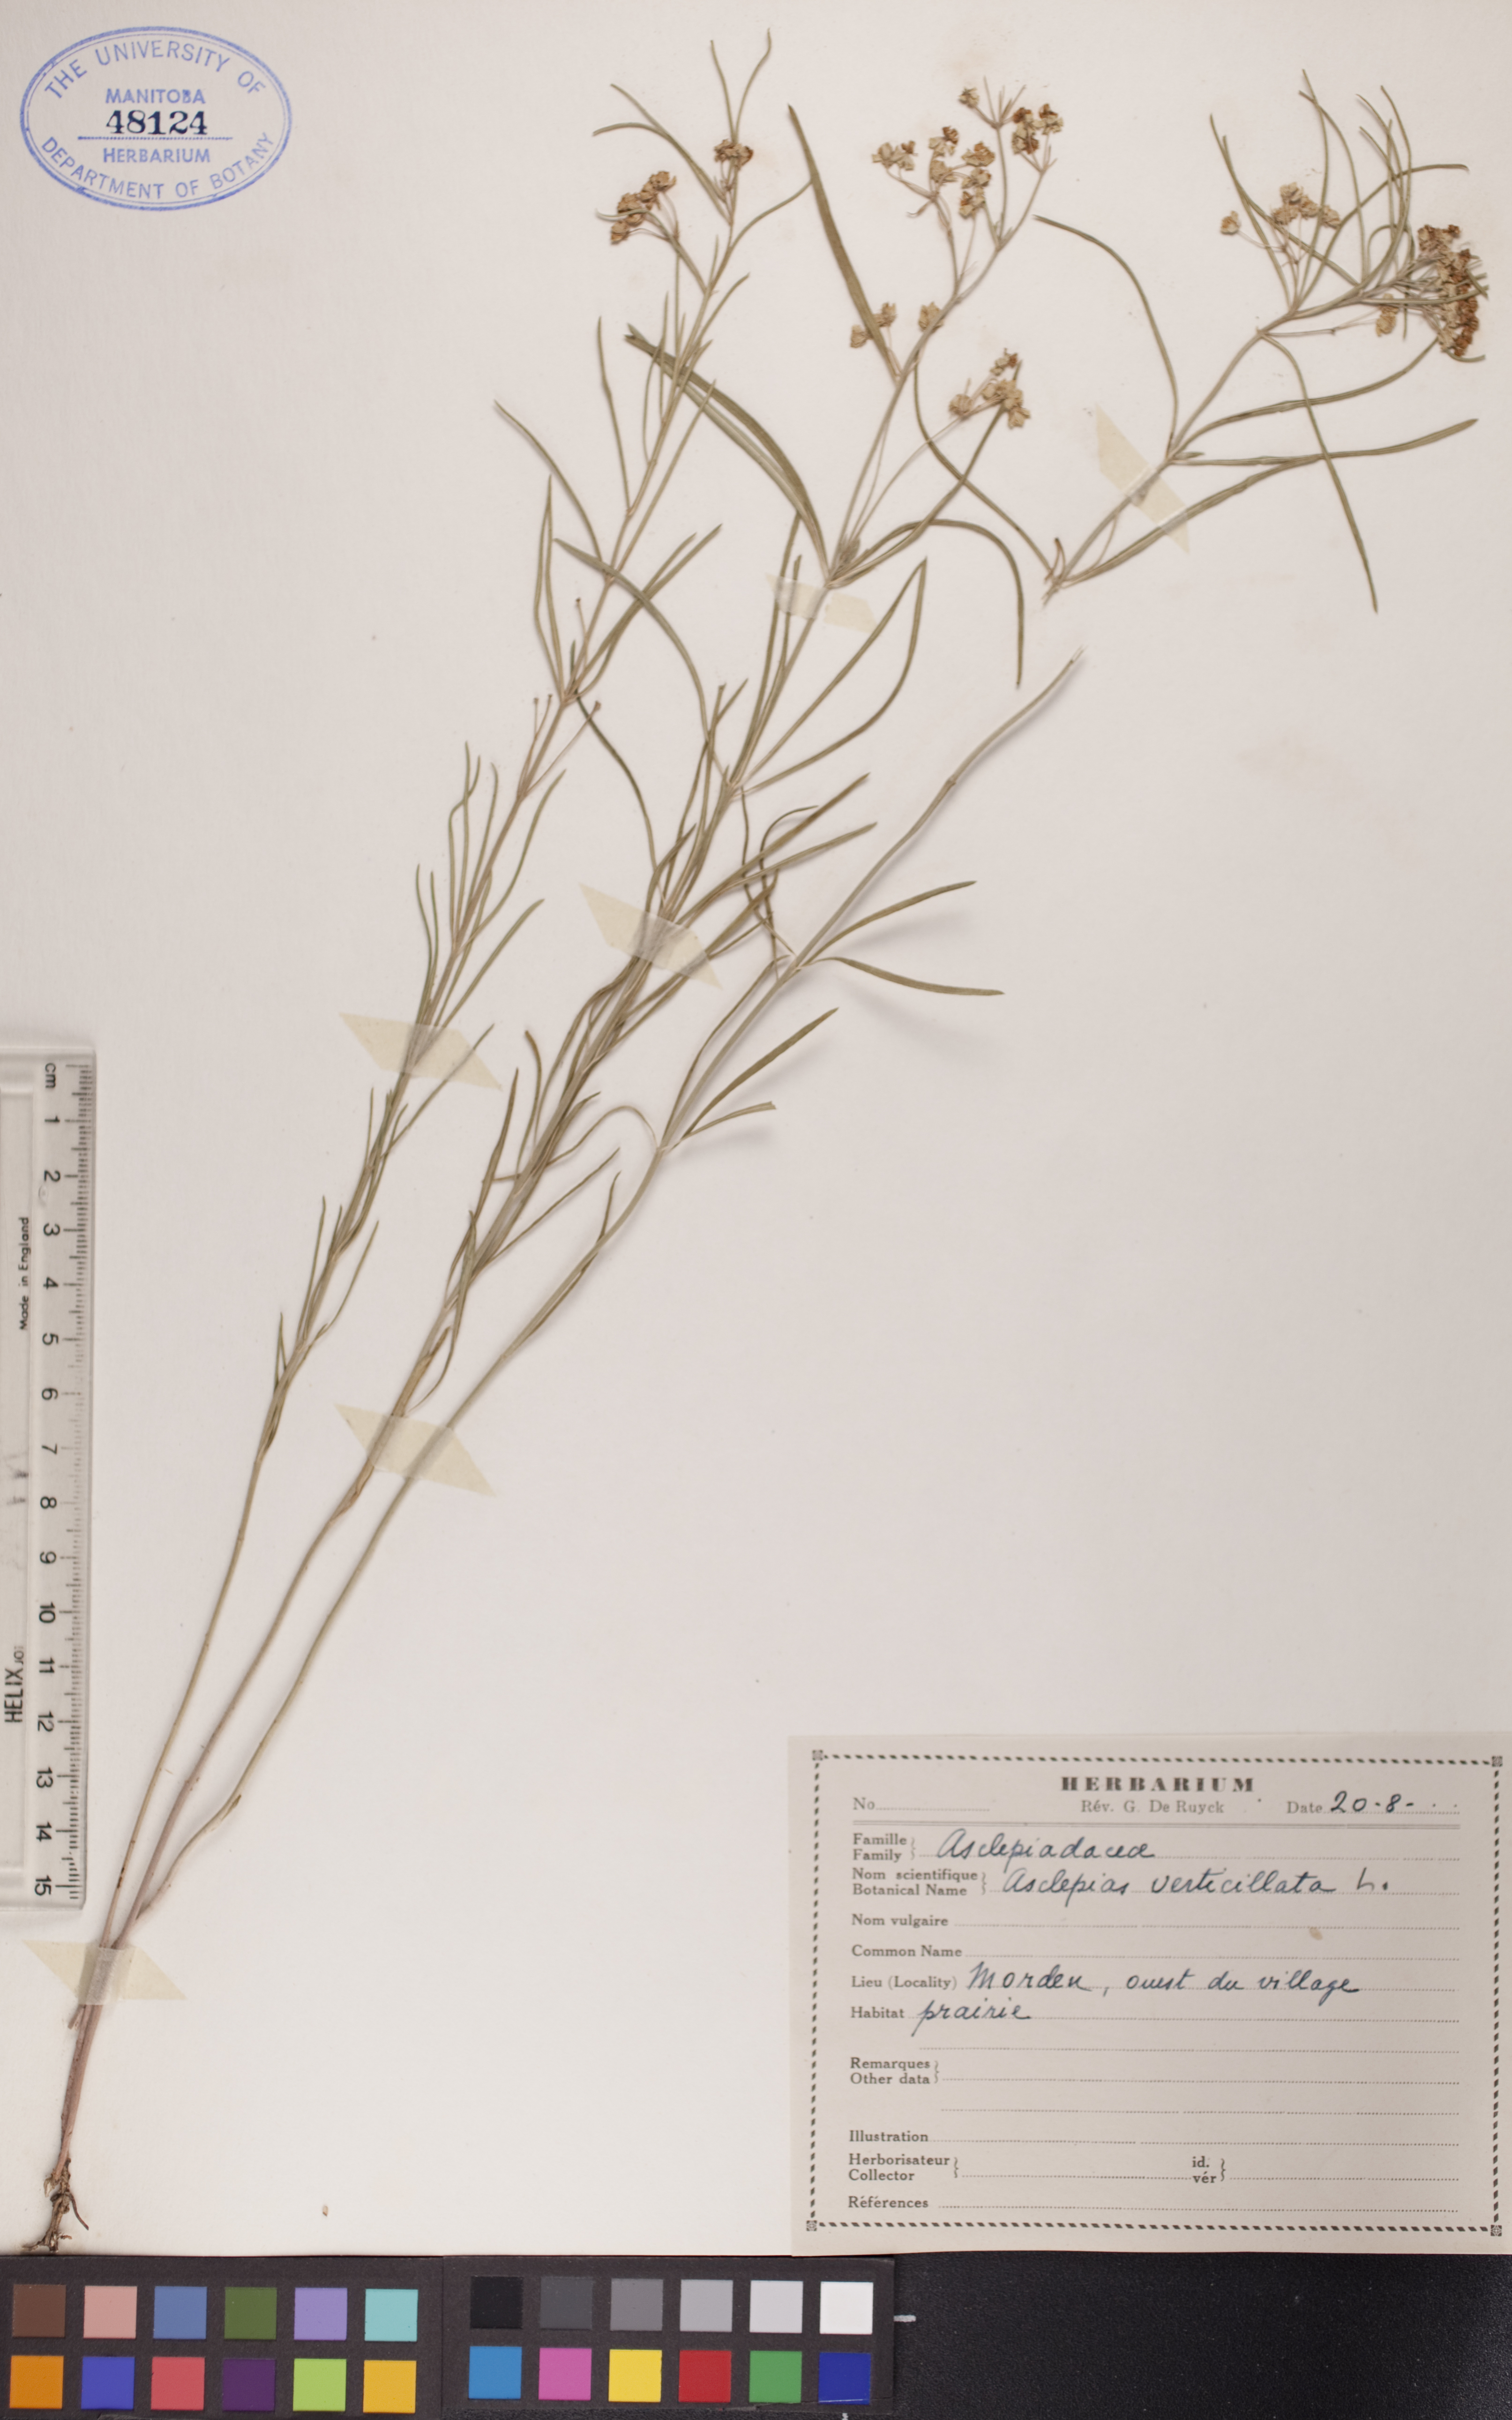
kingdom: Plantae
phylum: Tracheophyta
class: Magnoliopsida
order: Gentianales
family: Apocynaceae
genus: Asclepias
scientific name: Asclepias verticillata
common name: Eastern whorled milkweed
